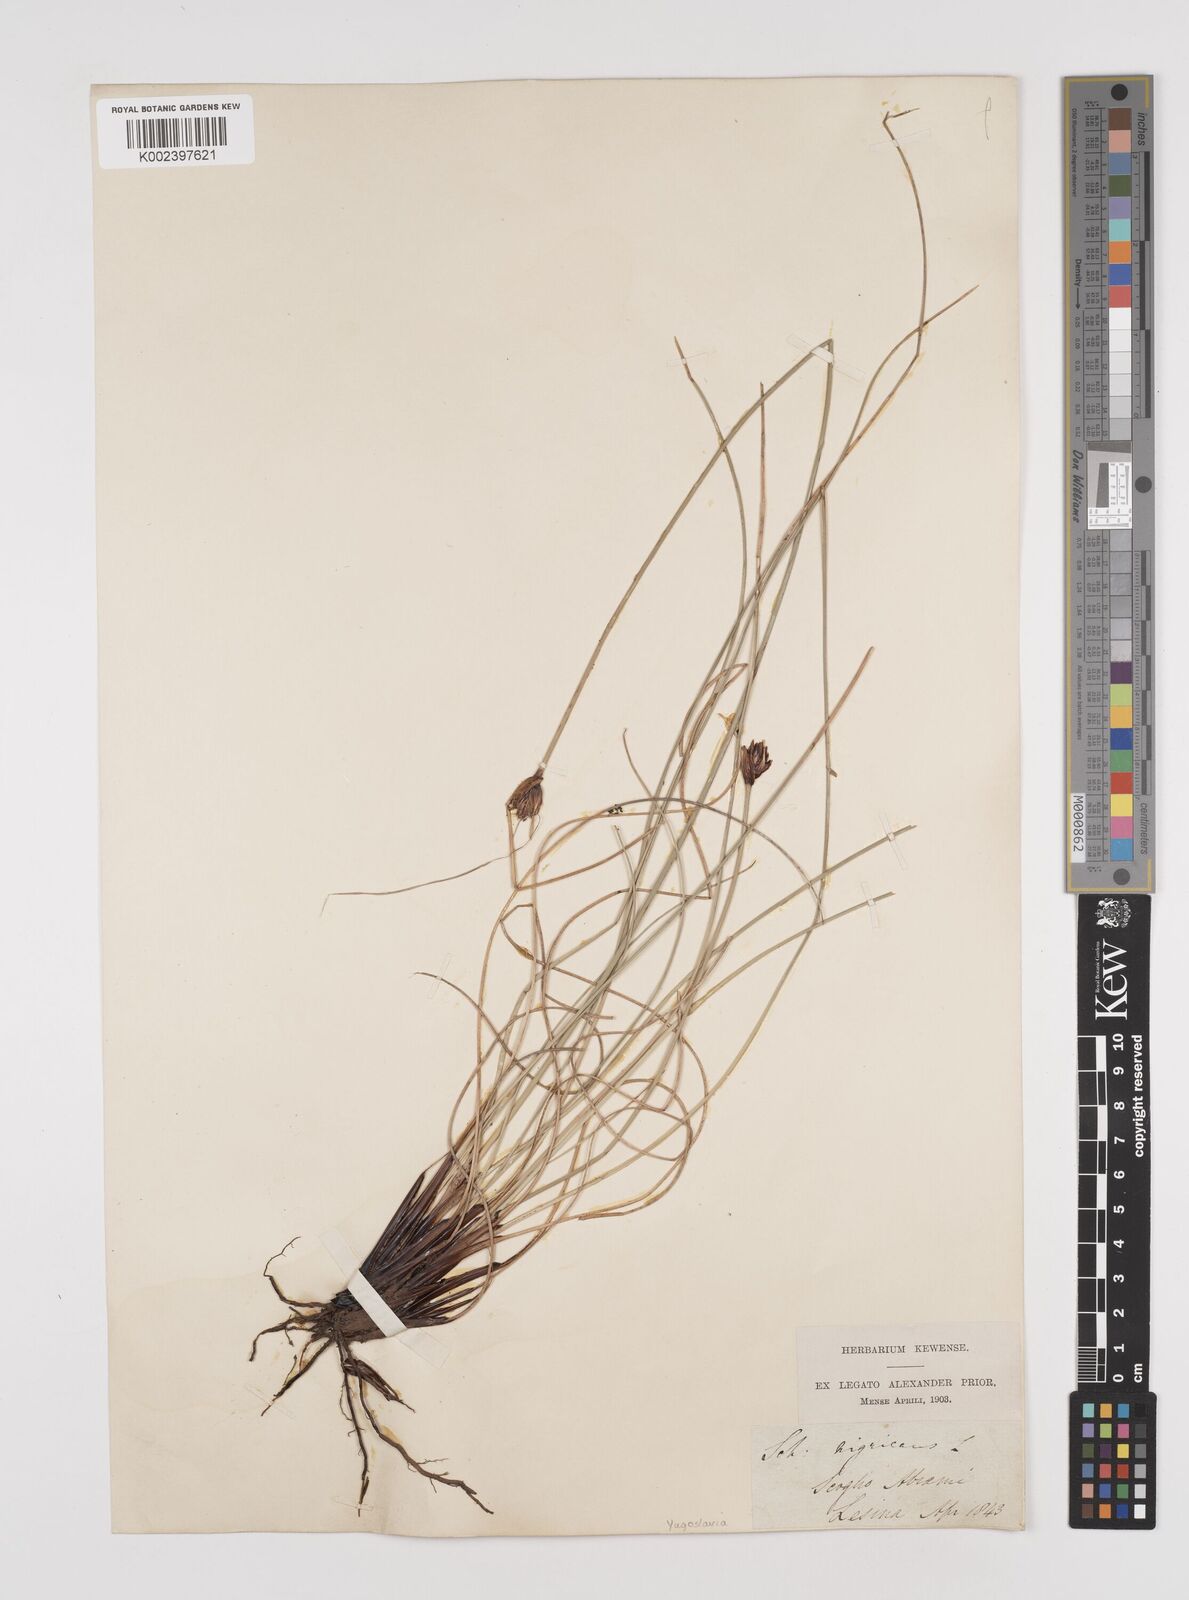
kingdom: Plantae
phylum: Tracheophyta
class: Liliopsida
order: Poales
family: Cyperaceae
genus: Schoenus
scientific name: Schoenus nigricans
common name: Black bog-rush
